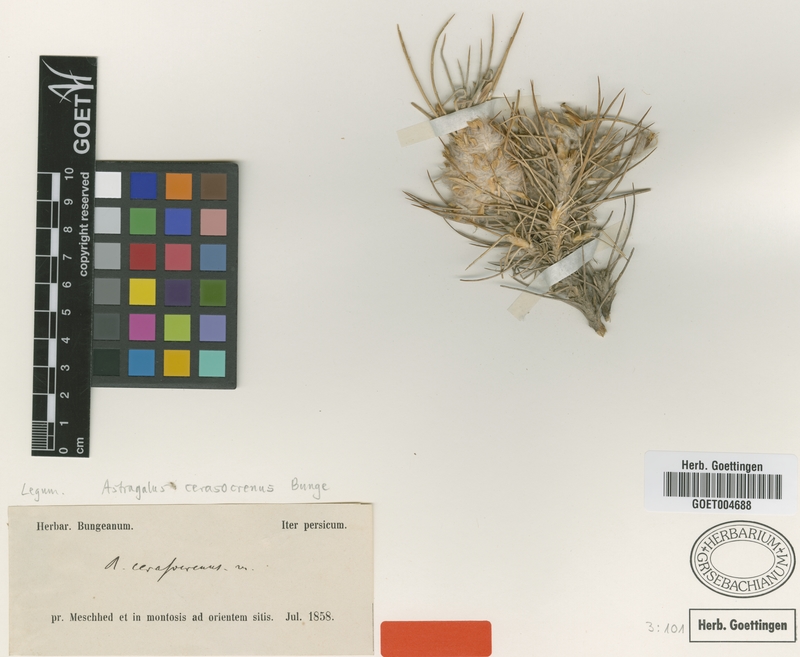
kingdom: Plantae
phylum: Tracheophyta
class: Magnoliopsida
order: Fabales
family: Fabaceae
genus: Astragalus
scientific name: Astragalus cerasocrenus
